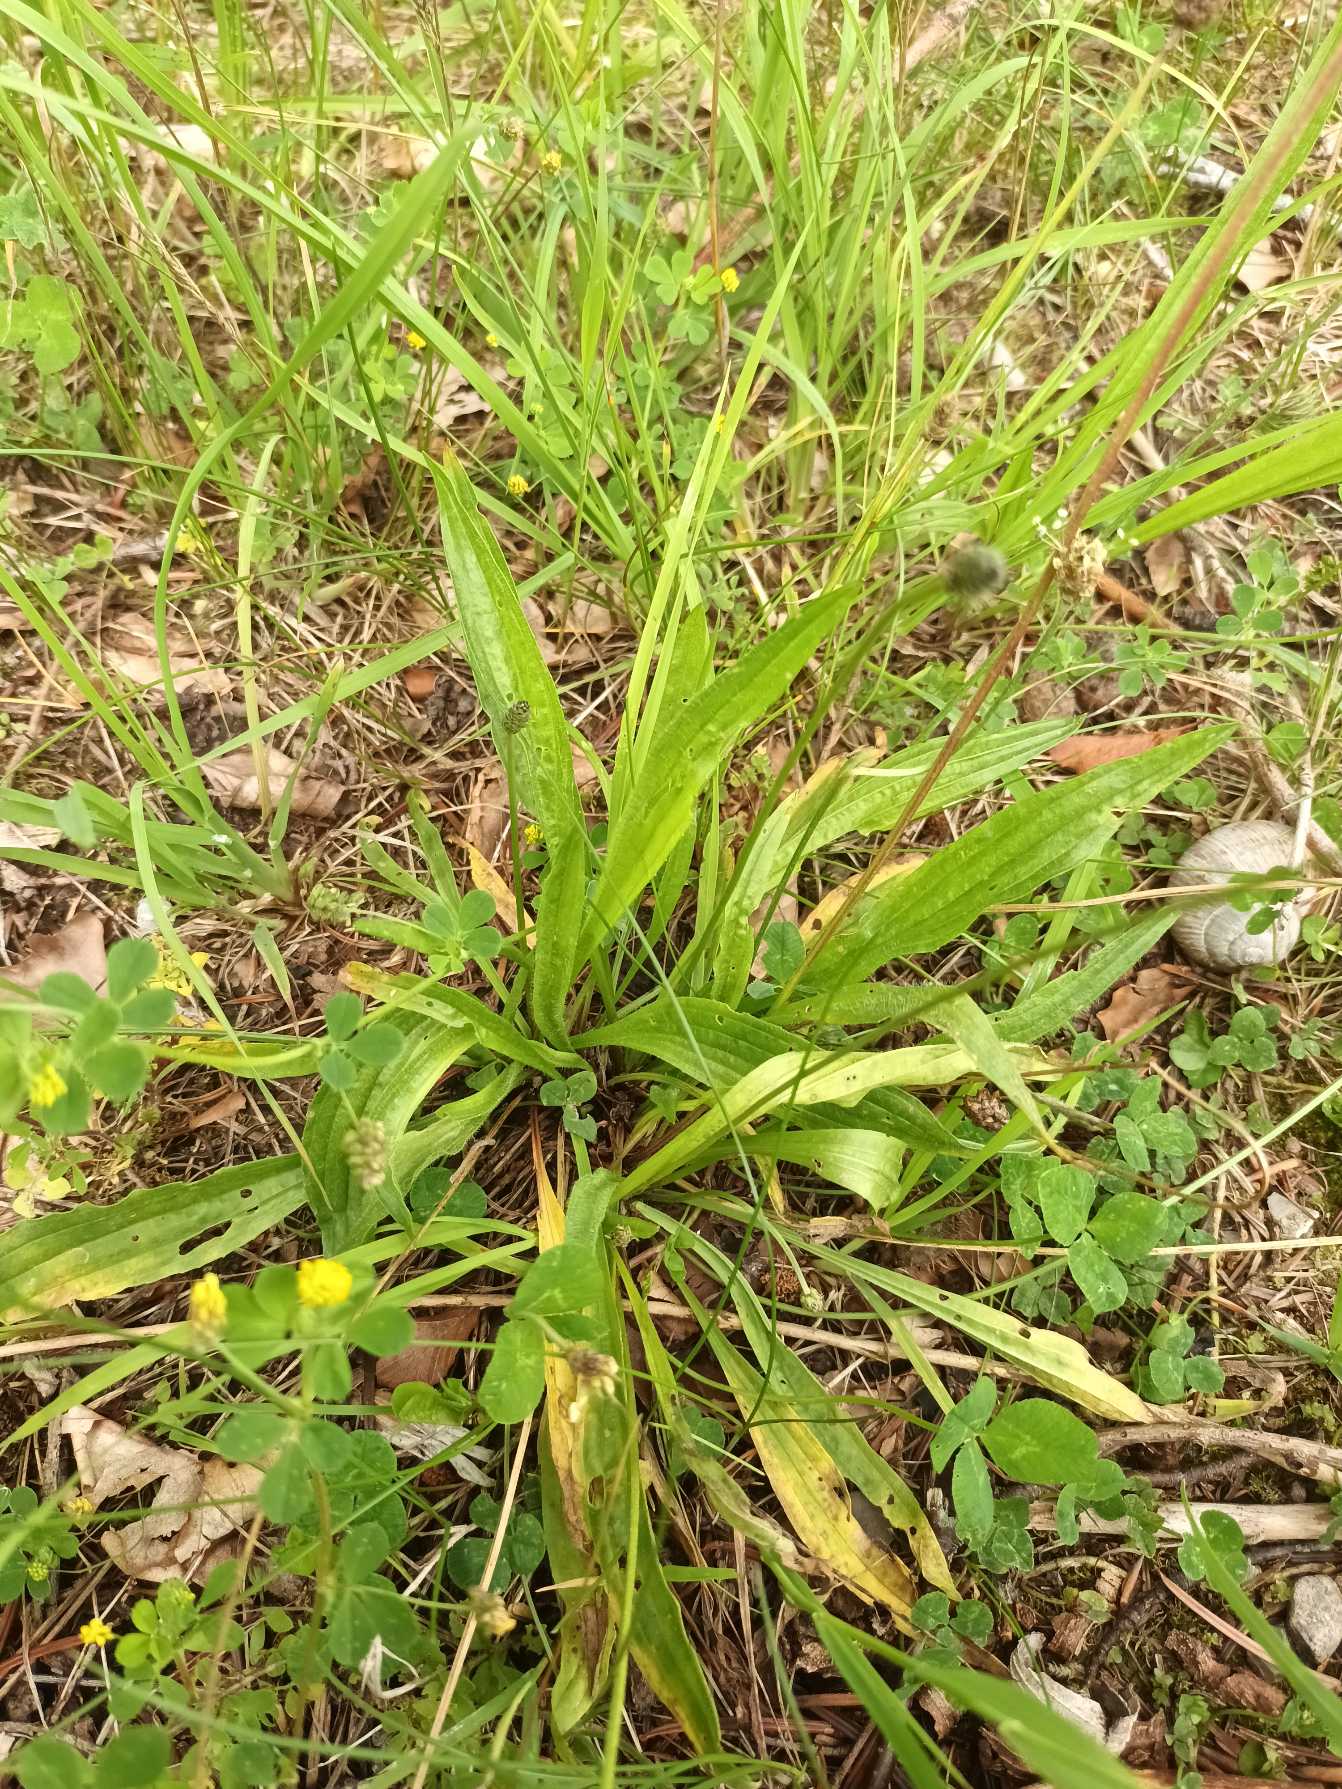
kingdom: Plantae
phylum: Tracheophyta
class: Magnoliopsida
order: Lamiales
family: Plantaginaceae
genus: Plantago
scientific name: Plantago lanceolata
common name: Lancet-vejbred
